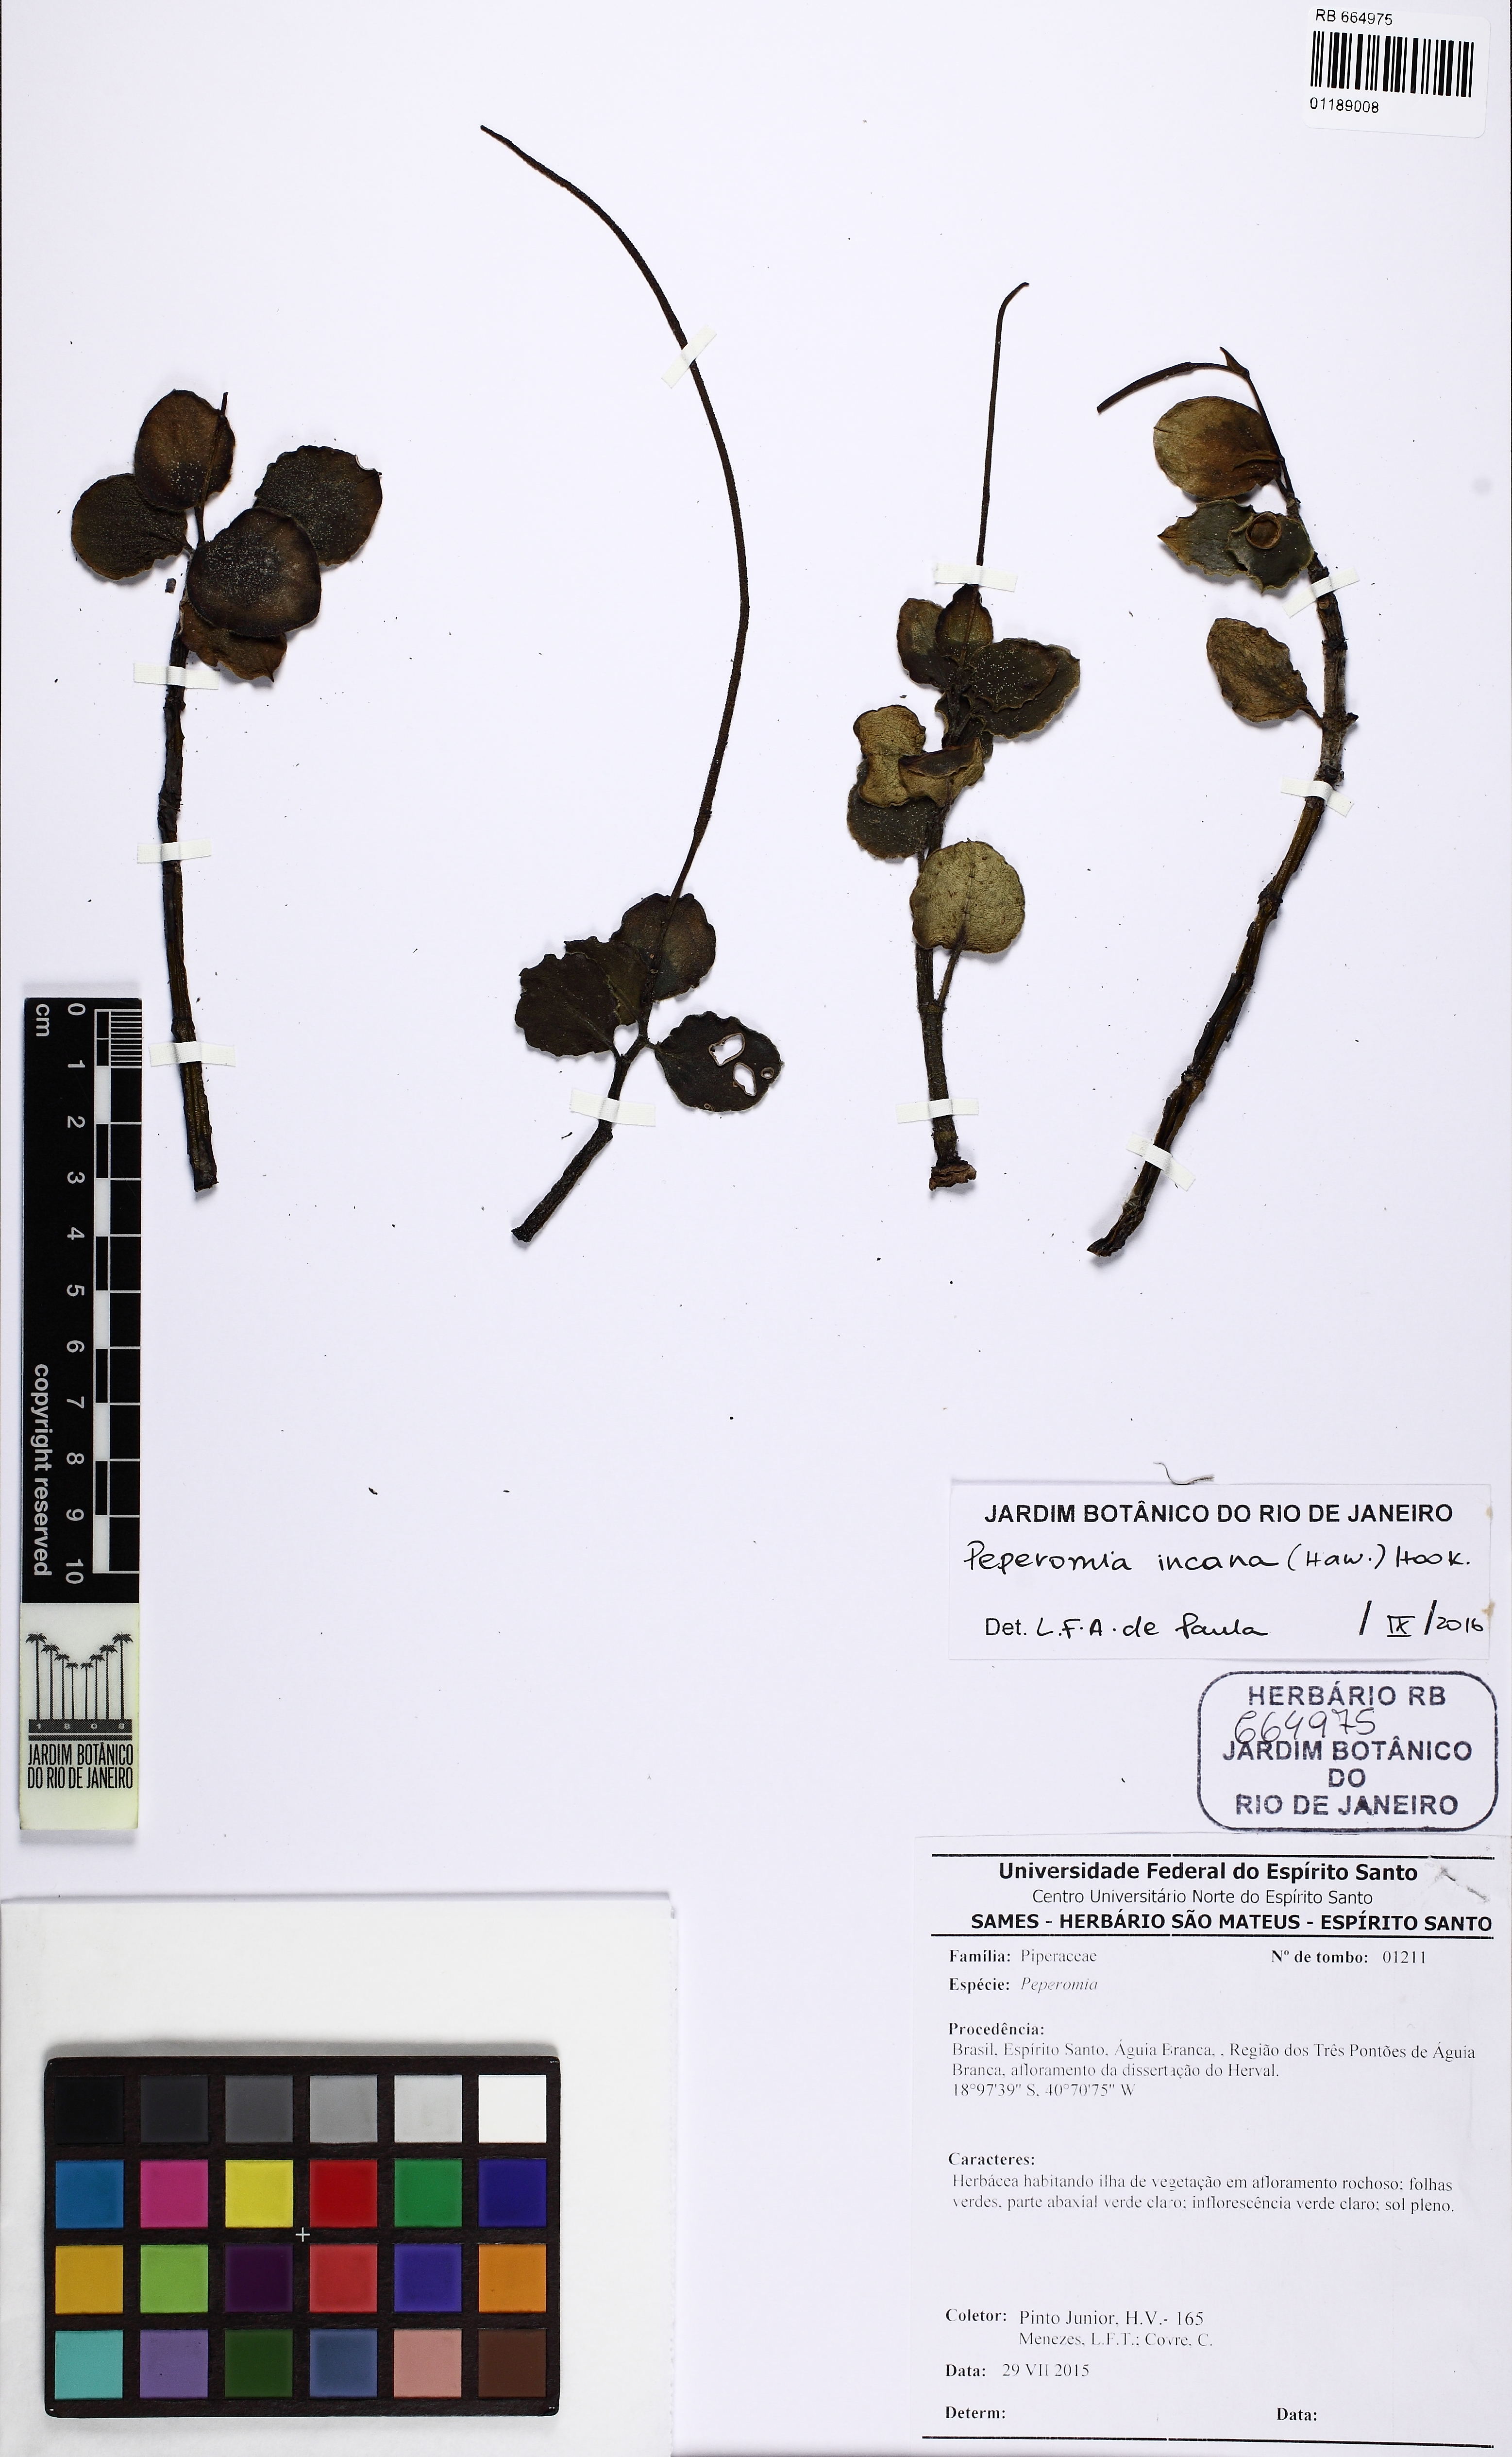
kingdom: Plantae
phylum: Tracheophyta
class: Magnoliopsida
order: Piperales
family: Piperaceae
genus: Peperomia
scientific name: Peperomia incana
